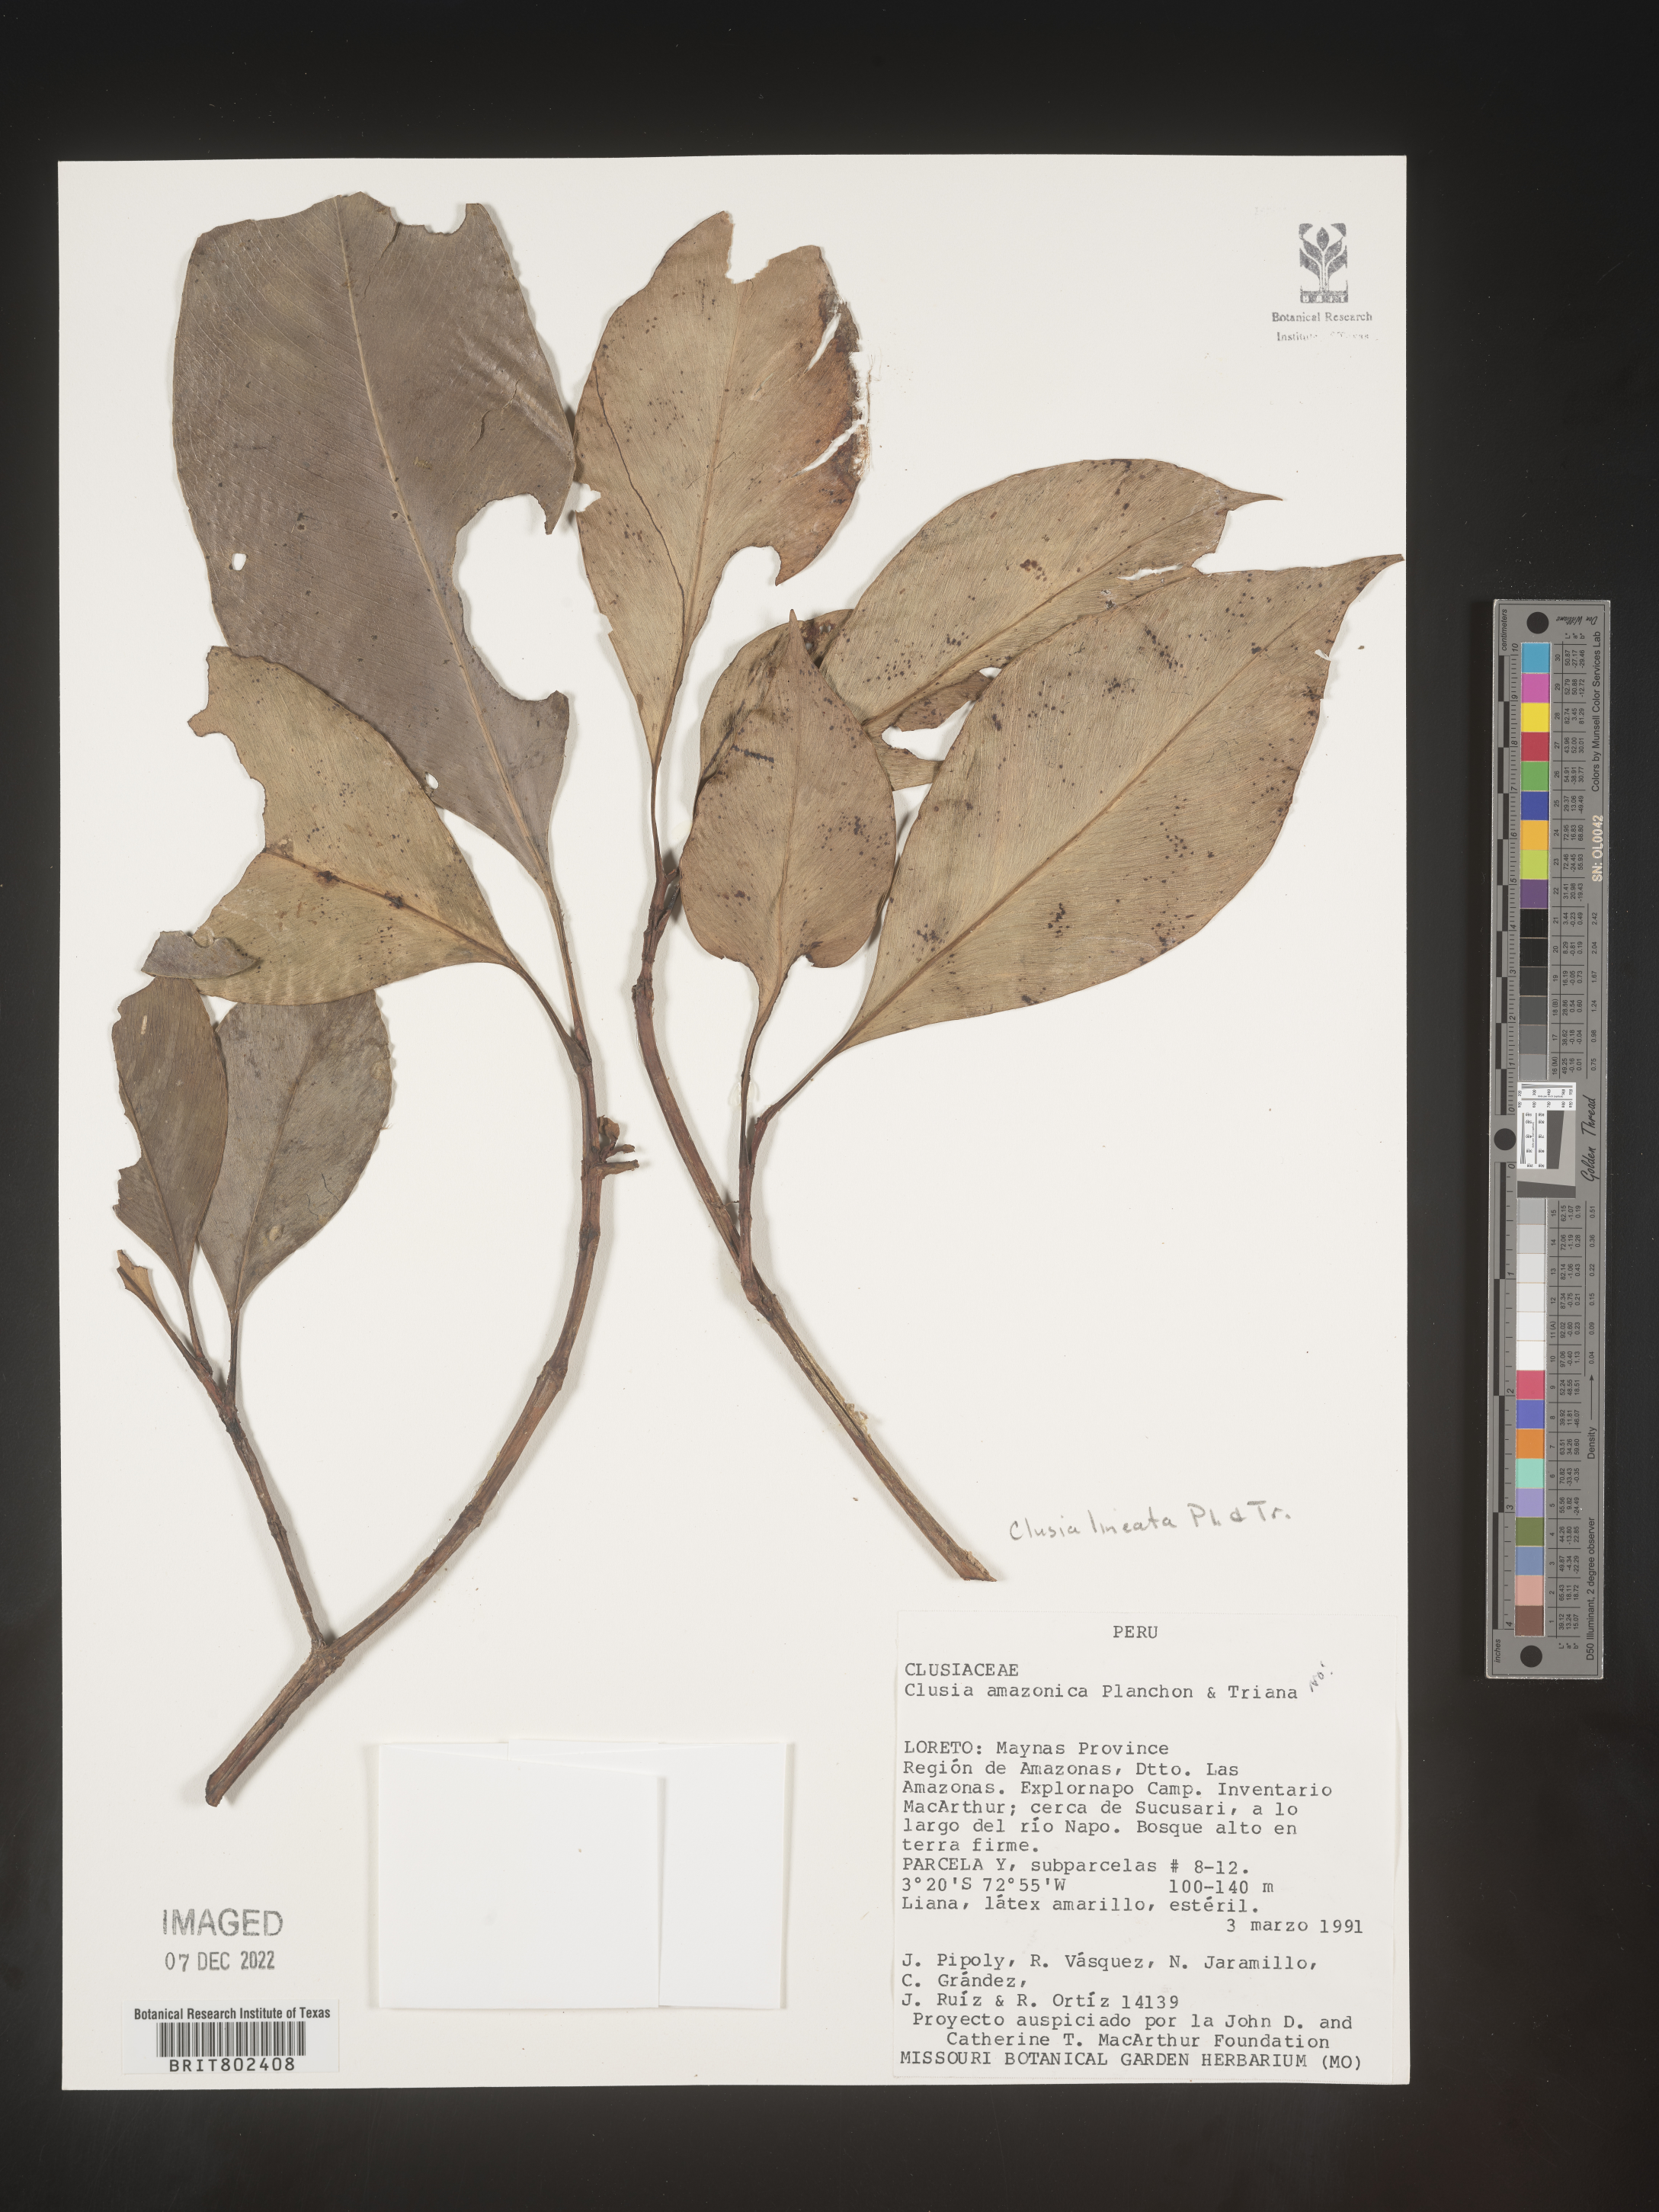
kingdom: Plantae
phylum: Tracheophyta
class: Magnoliopsida
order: Malpighiales
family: Clusiaceae
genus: Clusia
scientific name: Clusia lineata
